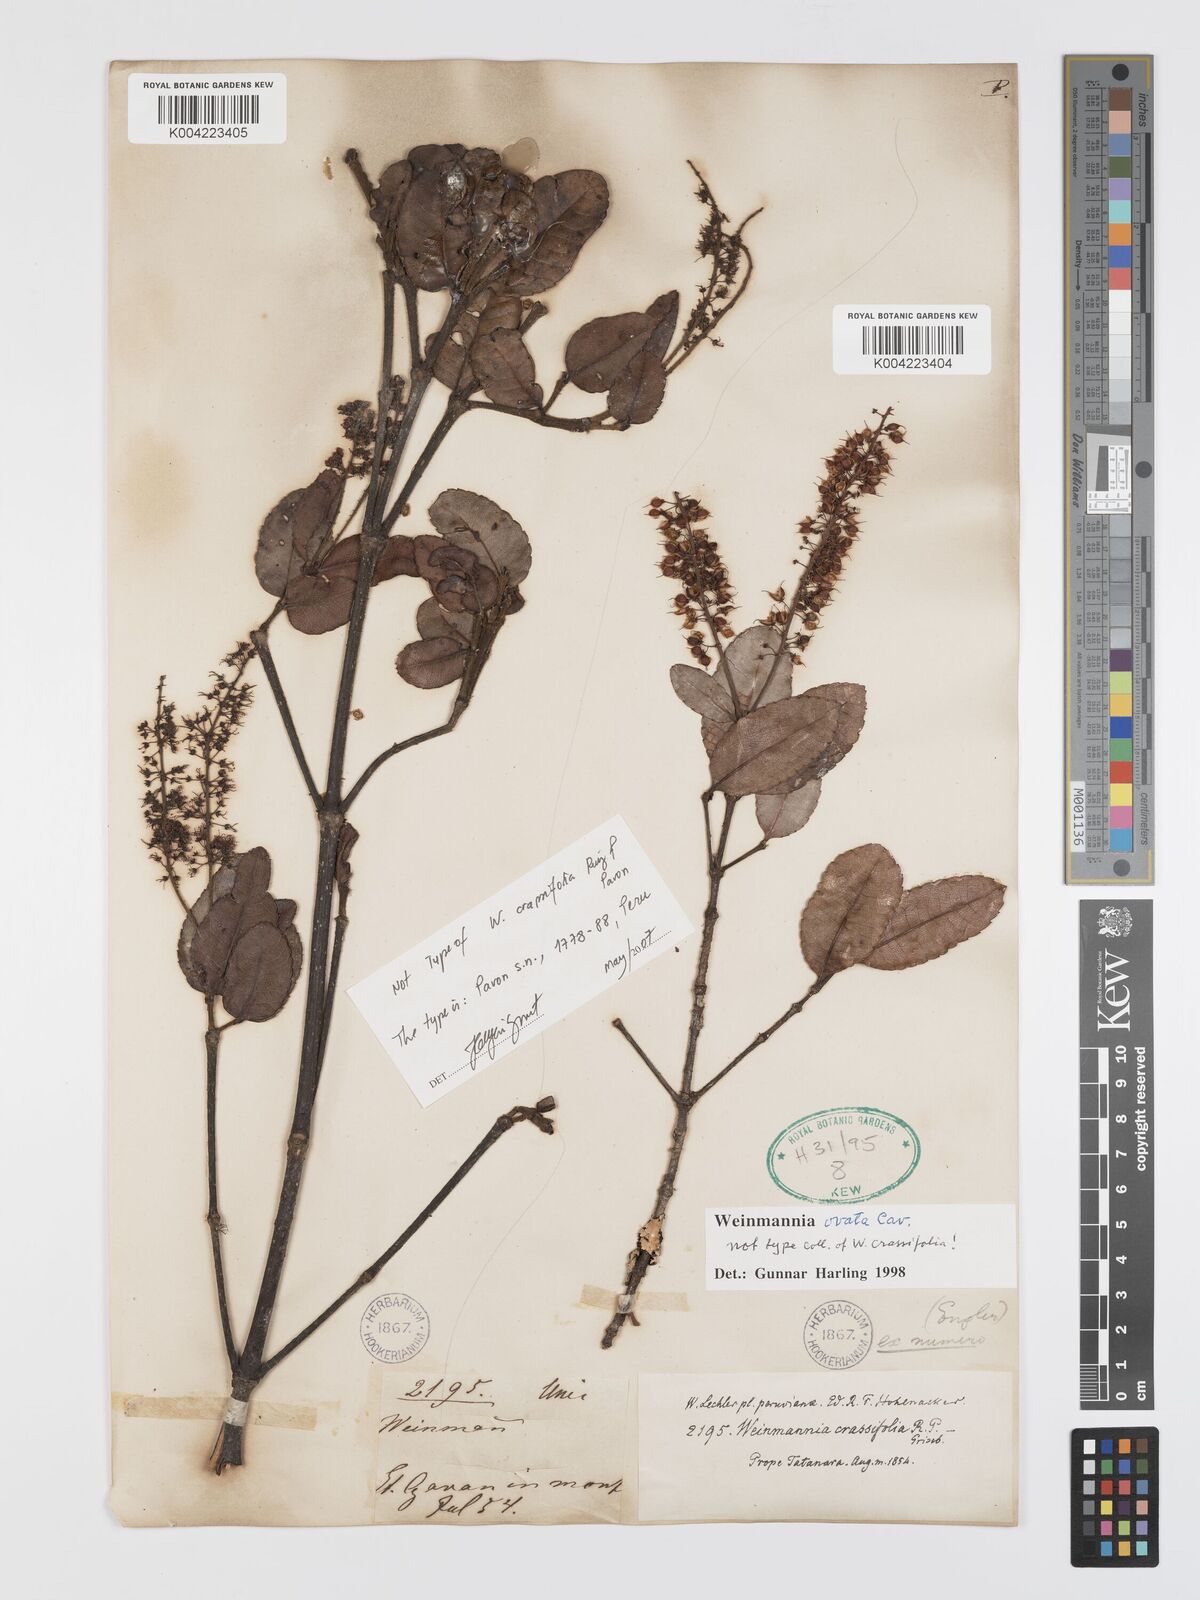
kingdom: Plantae
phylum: Tracheophyta
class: Magnoliopsida
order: Oxalidales
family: Cunoniaceae
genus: Weinmannia
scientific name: Weinmannia ovata
